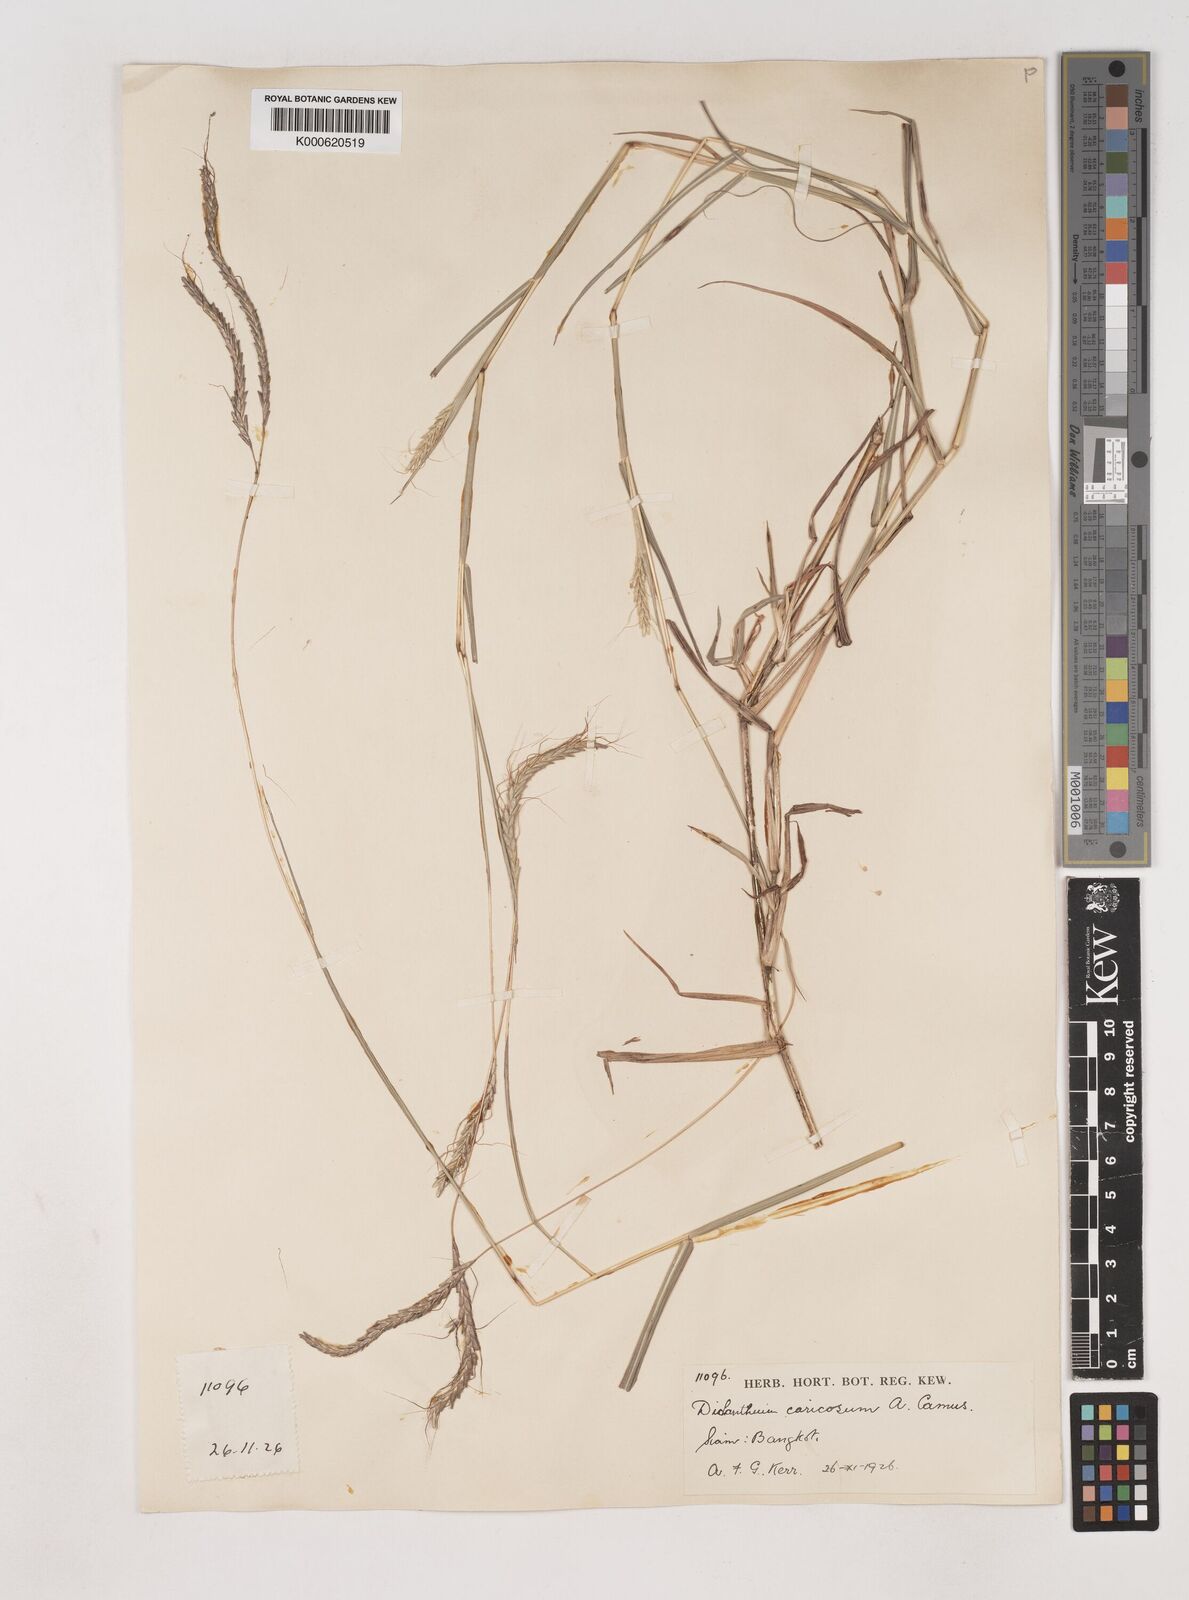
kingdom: Plantae
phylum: Tracheophyta
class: Liliopsida
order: Poales
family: Poaceae
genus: Dichanthium
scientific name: Dichanthium caricosum
